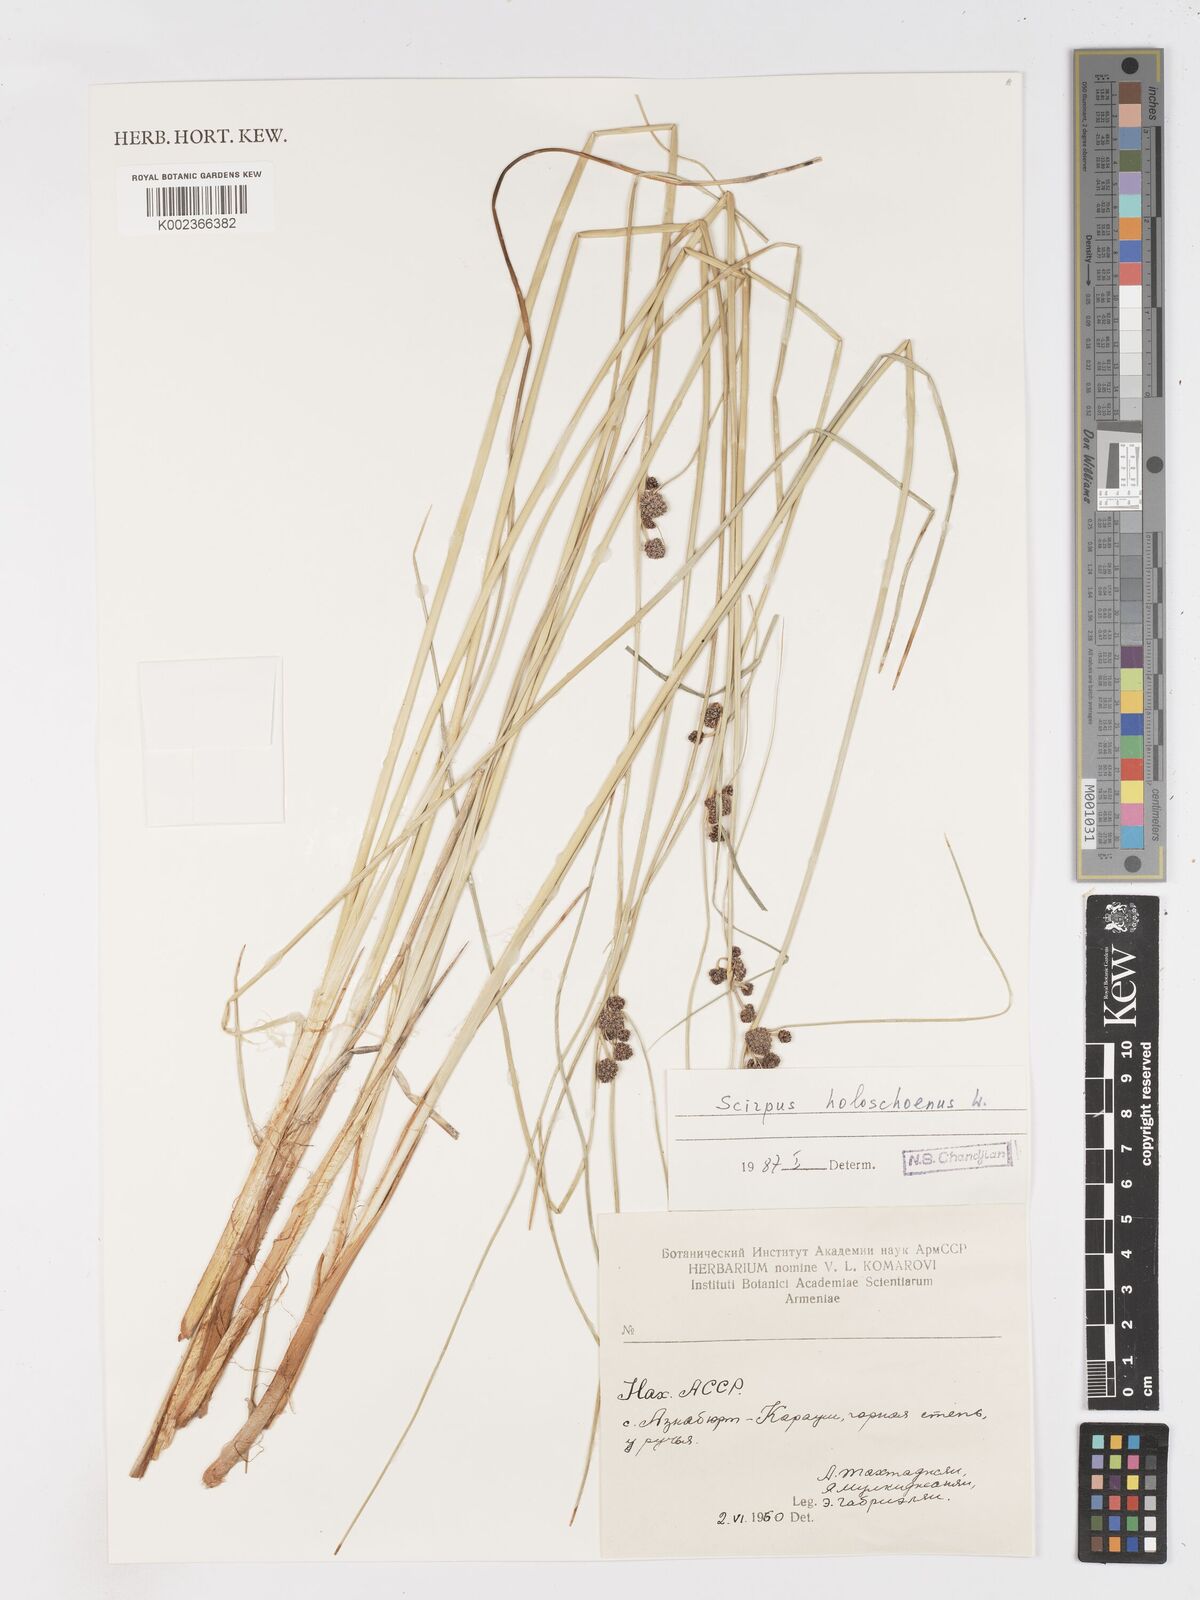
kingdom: Plantae
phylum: Tracheophyta
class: Liliopsida
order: Poales
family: Cyperaceae
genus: Scirpoides
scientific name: Scirpoides holoschoenus
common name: Round-headed club-rush
